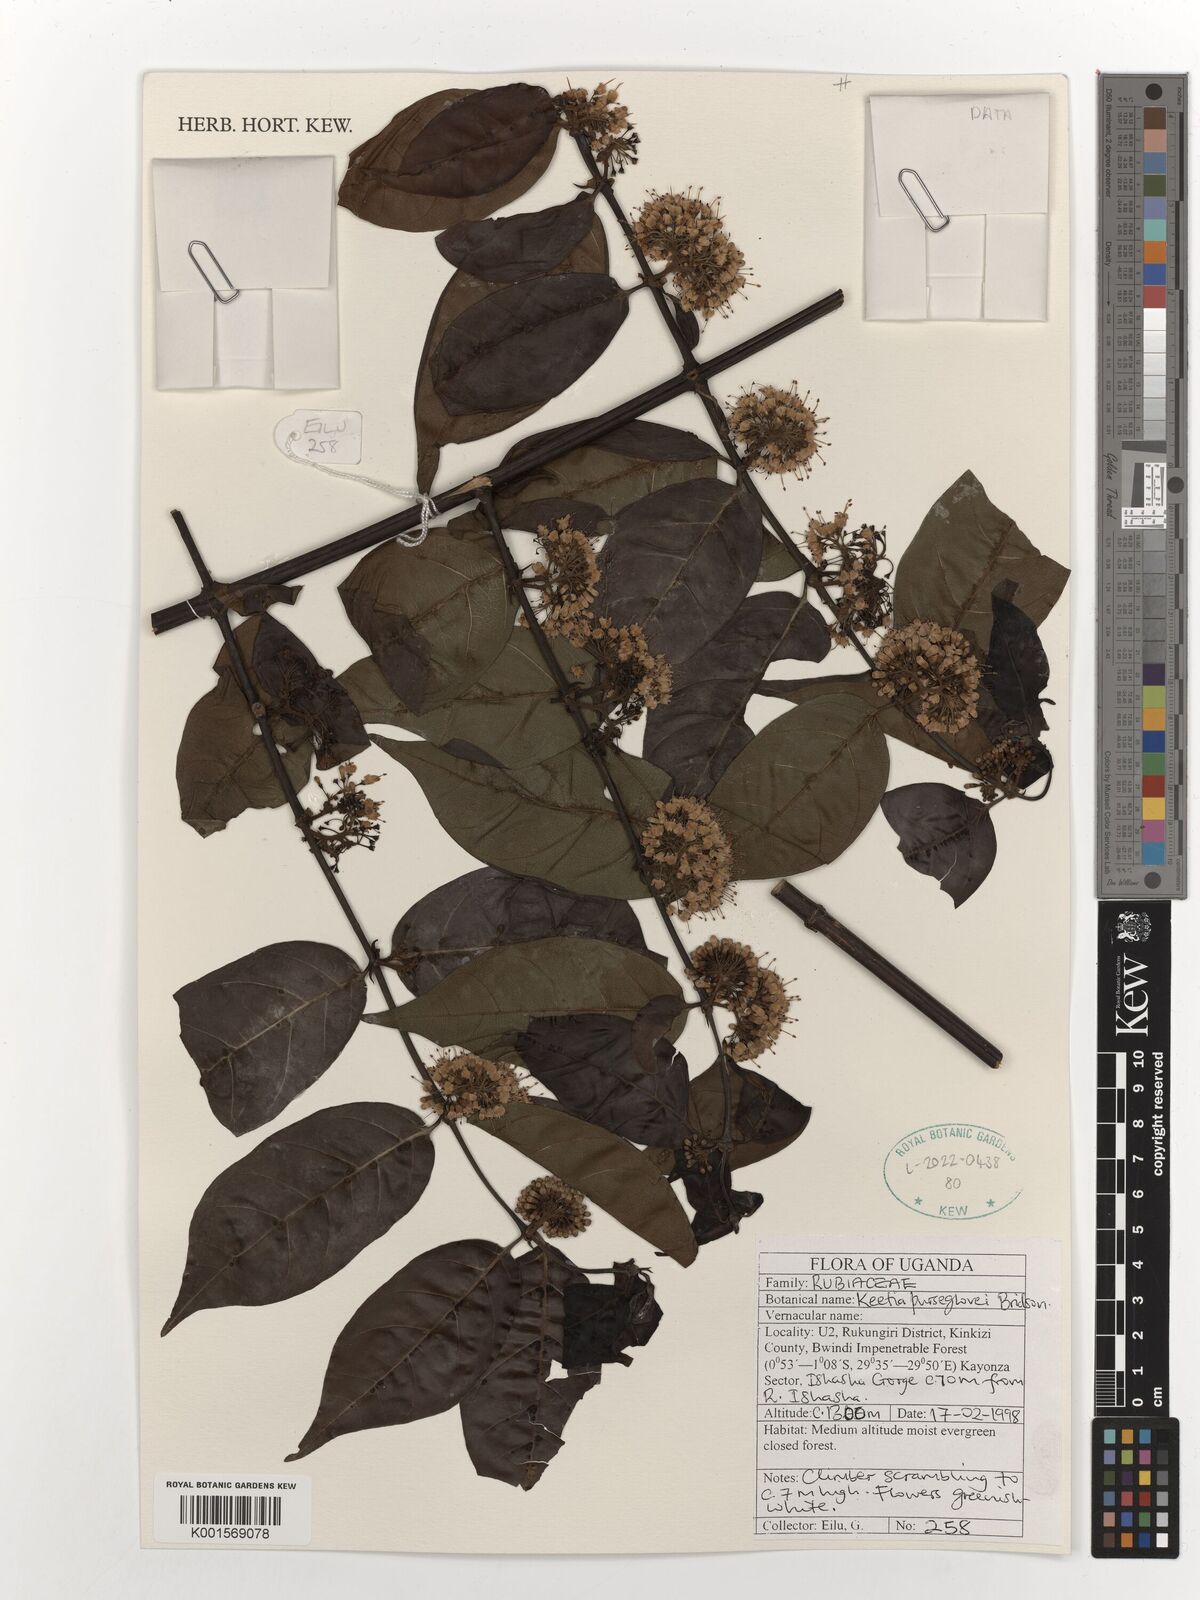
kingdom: Plantae
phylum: Tracheophyta
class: Magnoliopsida
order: Gentianales
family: Rubiaceae
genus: Keetia
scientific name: Keetia purseglovei
